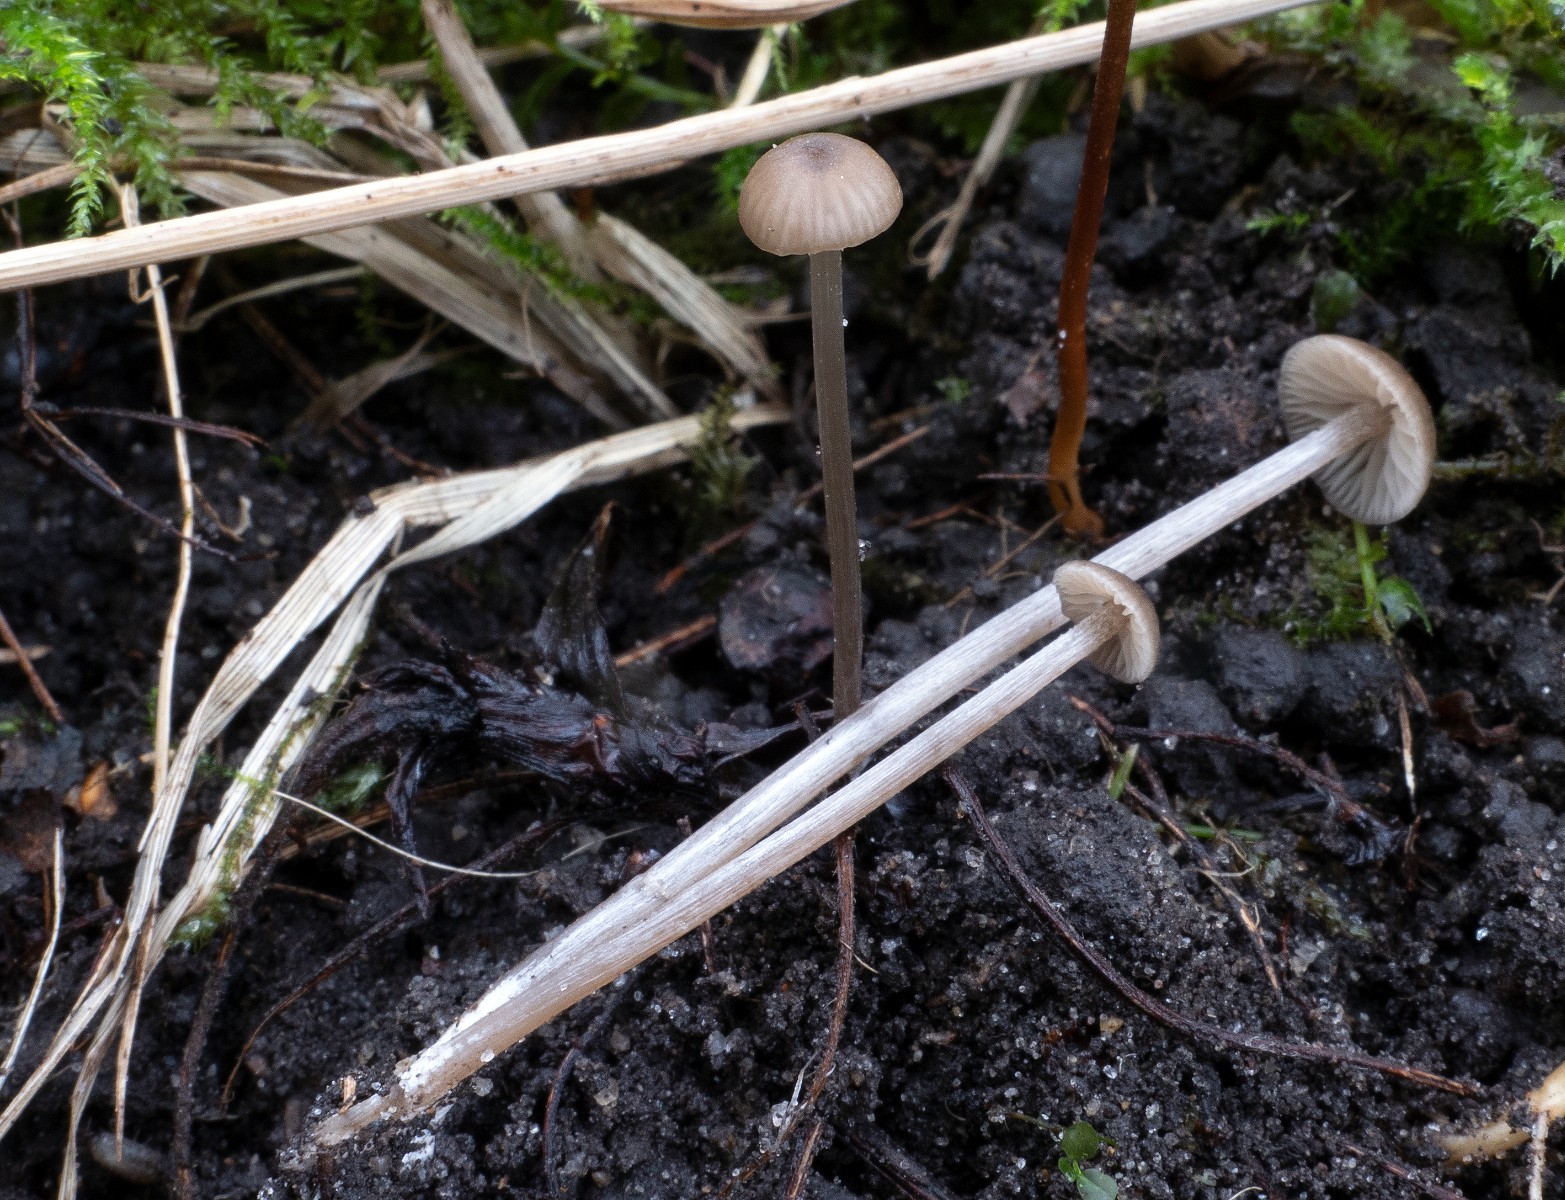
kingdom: Fungi
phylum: Basidiomycota
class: Agaricomycetes
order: Agaricales
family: Entolomataceae
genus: Entoloma
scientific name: Entoloma hebes
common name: krat-rødblad
